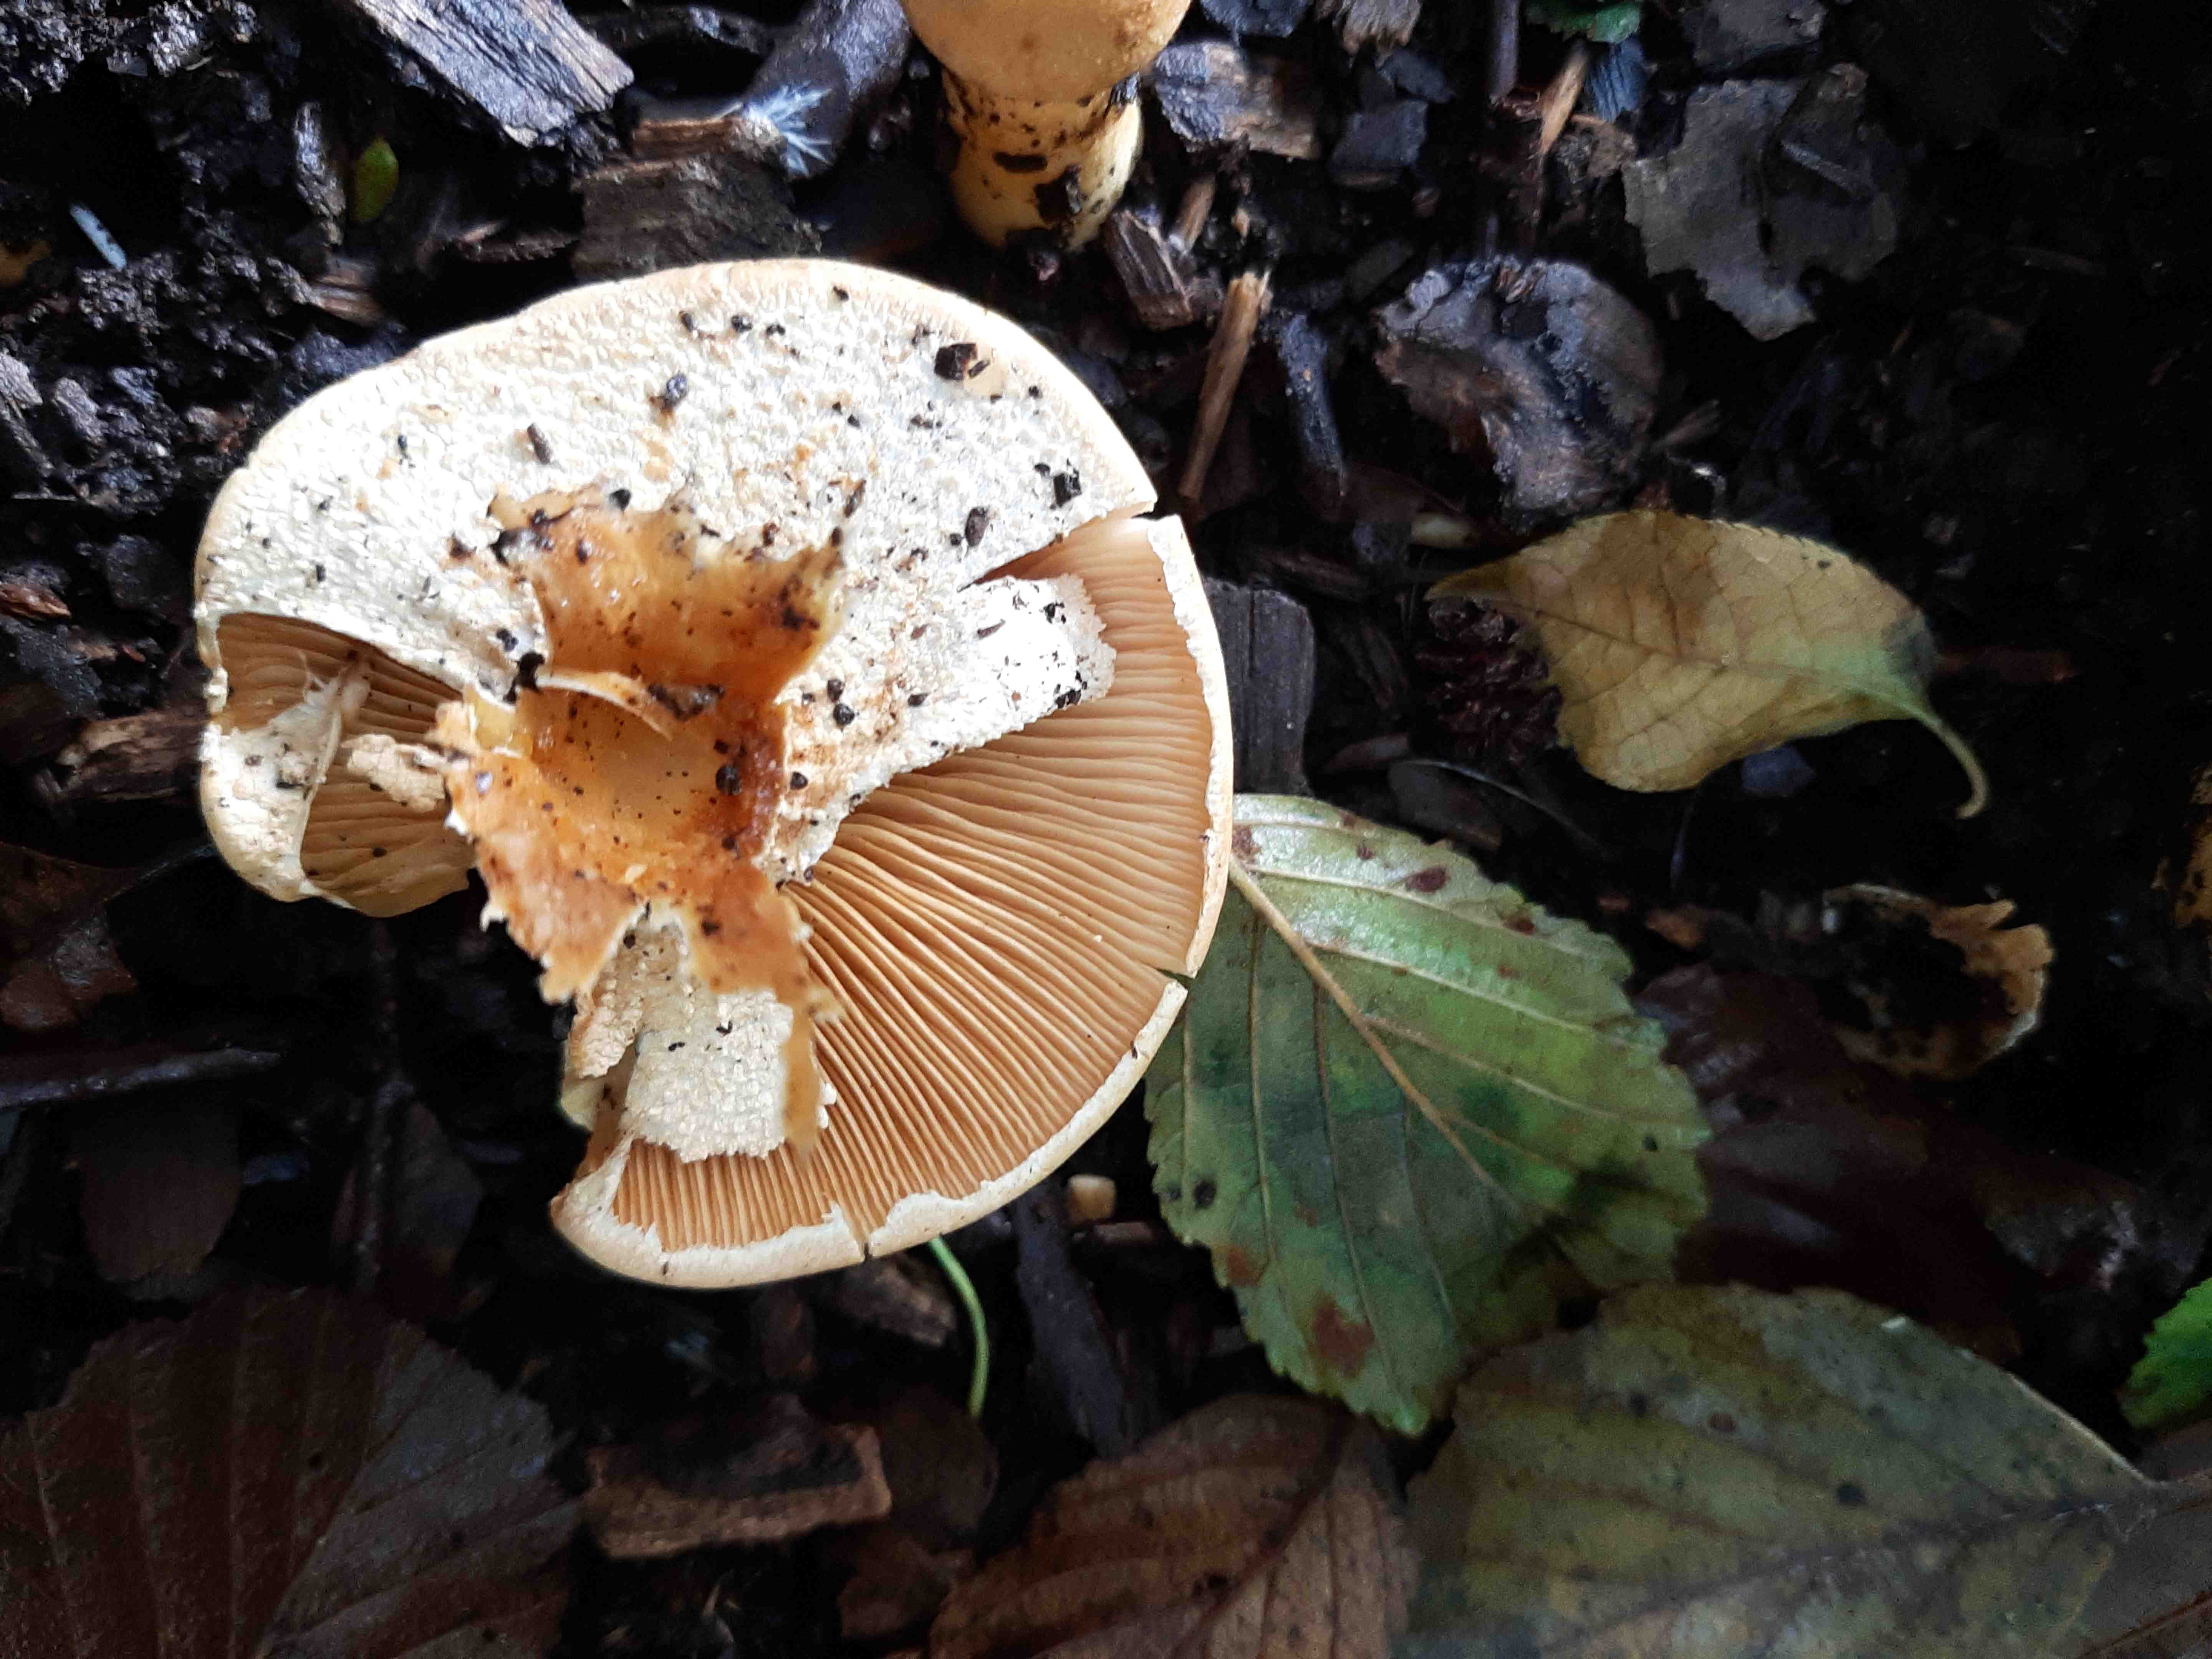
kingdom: Fungi
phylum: Basidiomycota
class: Agaricomycetes
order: Agaricales
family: Tricholomataceae
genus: Phaeolepiota
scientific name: Phaeolepiota aurea
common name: gyldenhat
